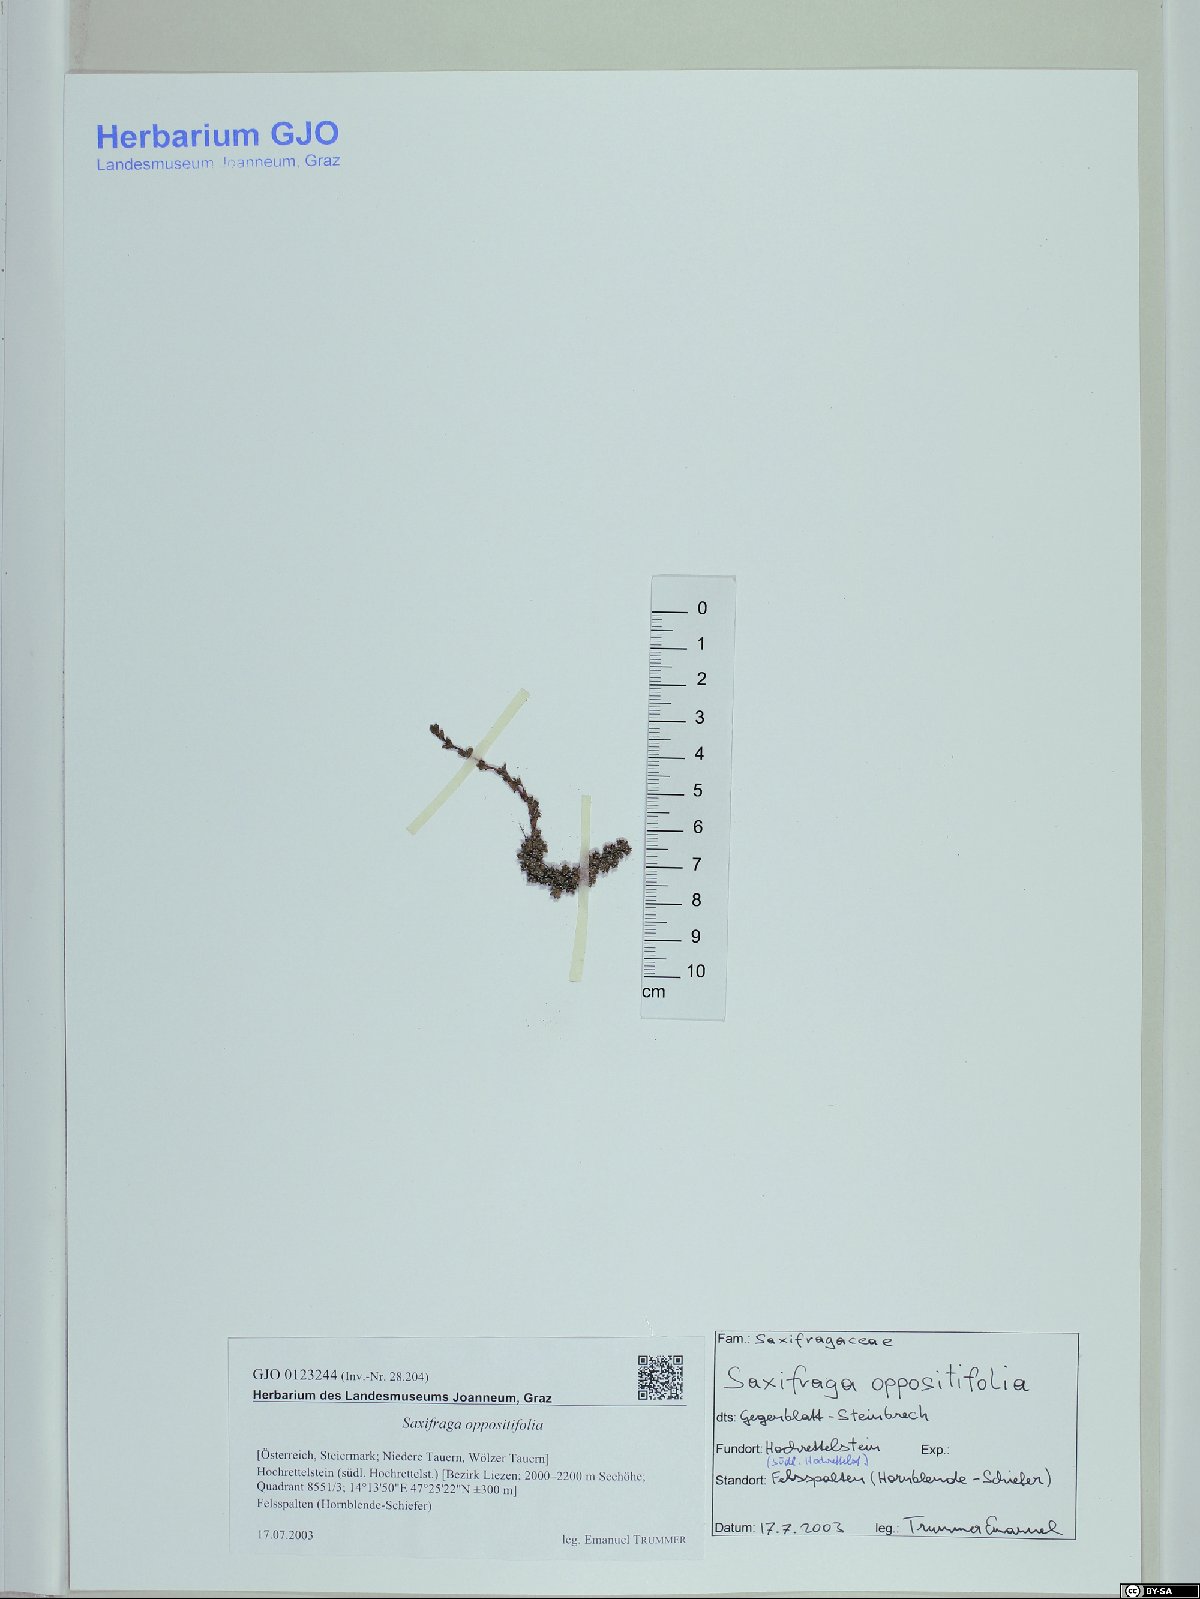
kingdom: Plantae
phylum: Tracheophyta
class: Magnoliopsida
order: Saxifragales
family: Saxifragaceae
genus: Saxifraga
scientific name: Saxifraga oppositifolia
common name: Purple saxifrage
